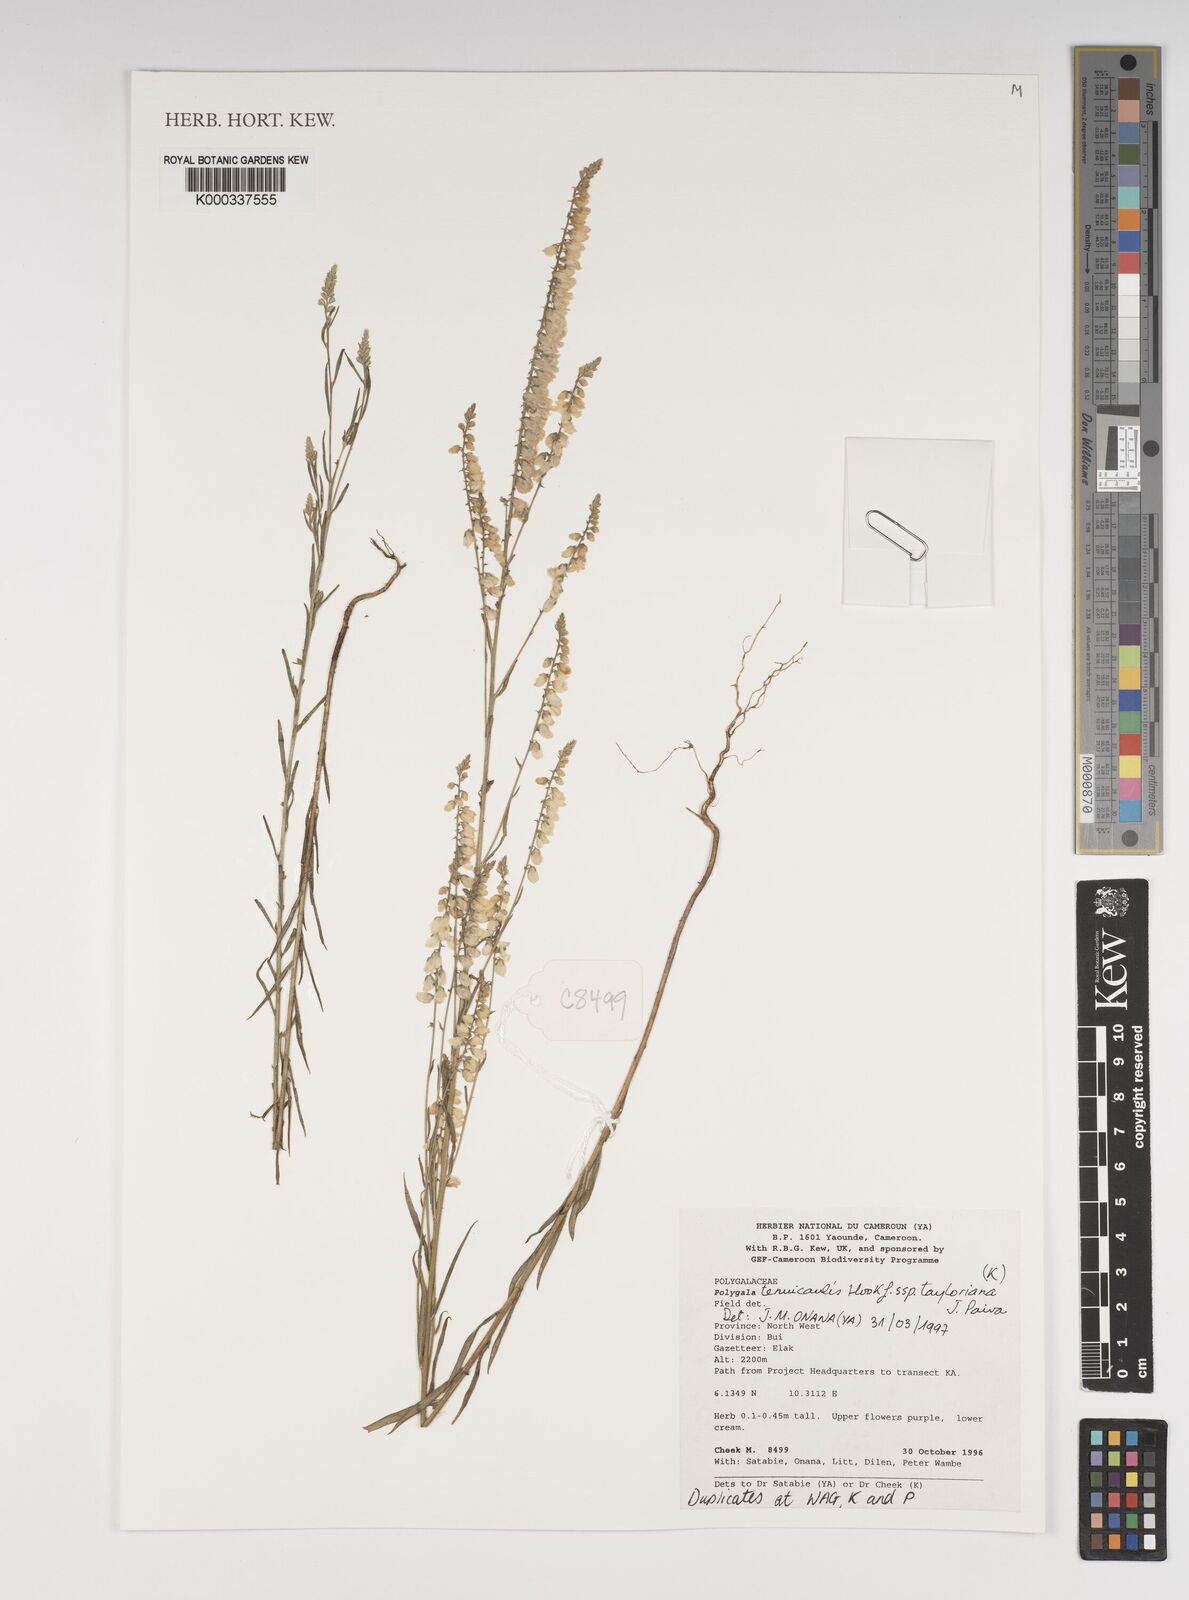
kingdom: Plantae
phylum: Tracheophyta
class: Magnoliopsida
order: Fabales
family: Polygalaceae
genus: Polygala
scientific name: Polygala tenuicaulis
